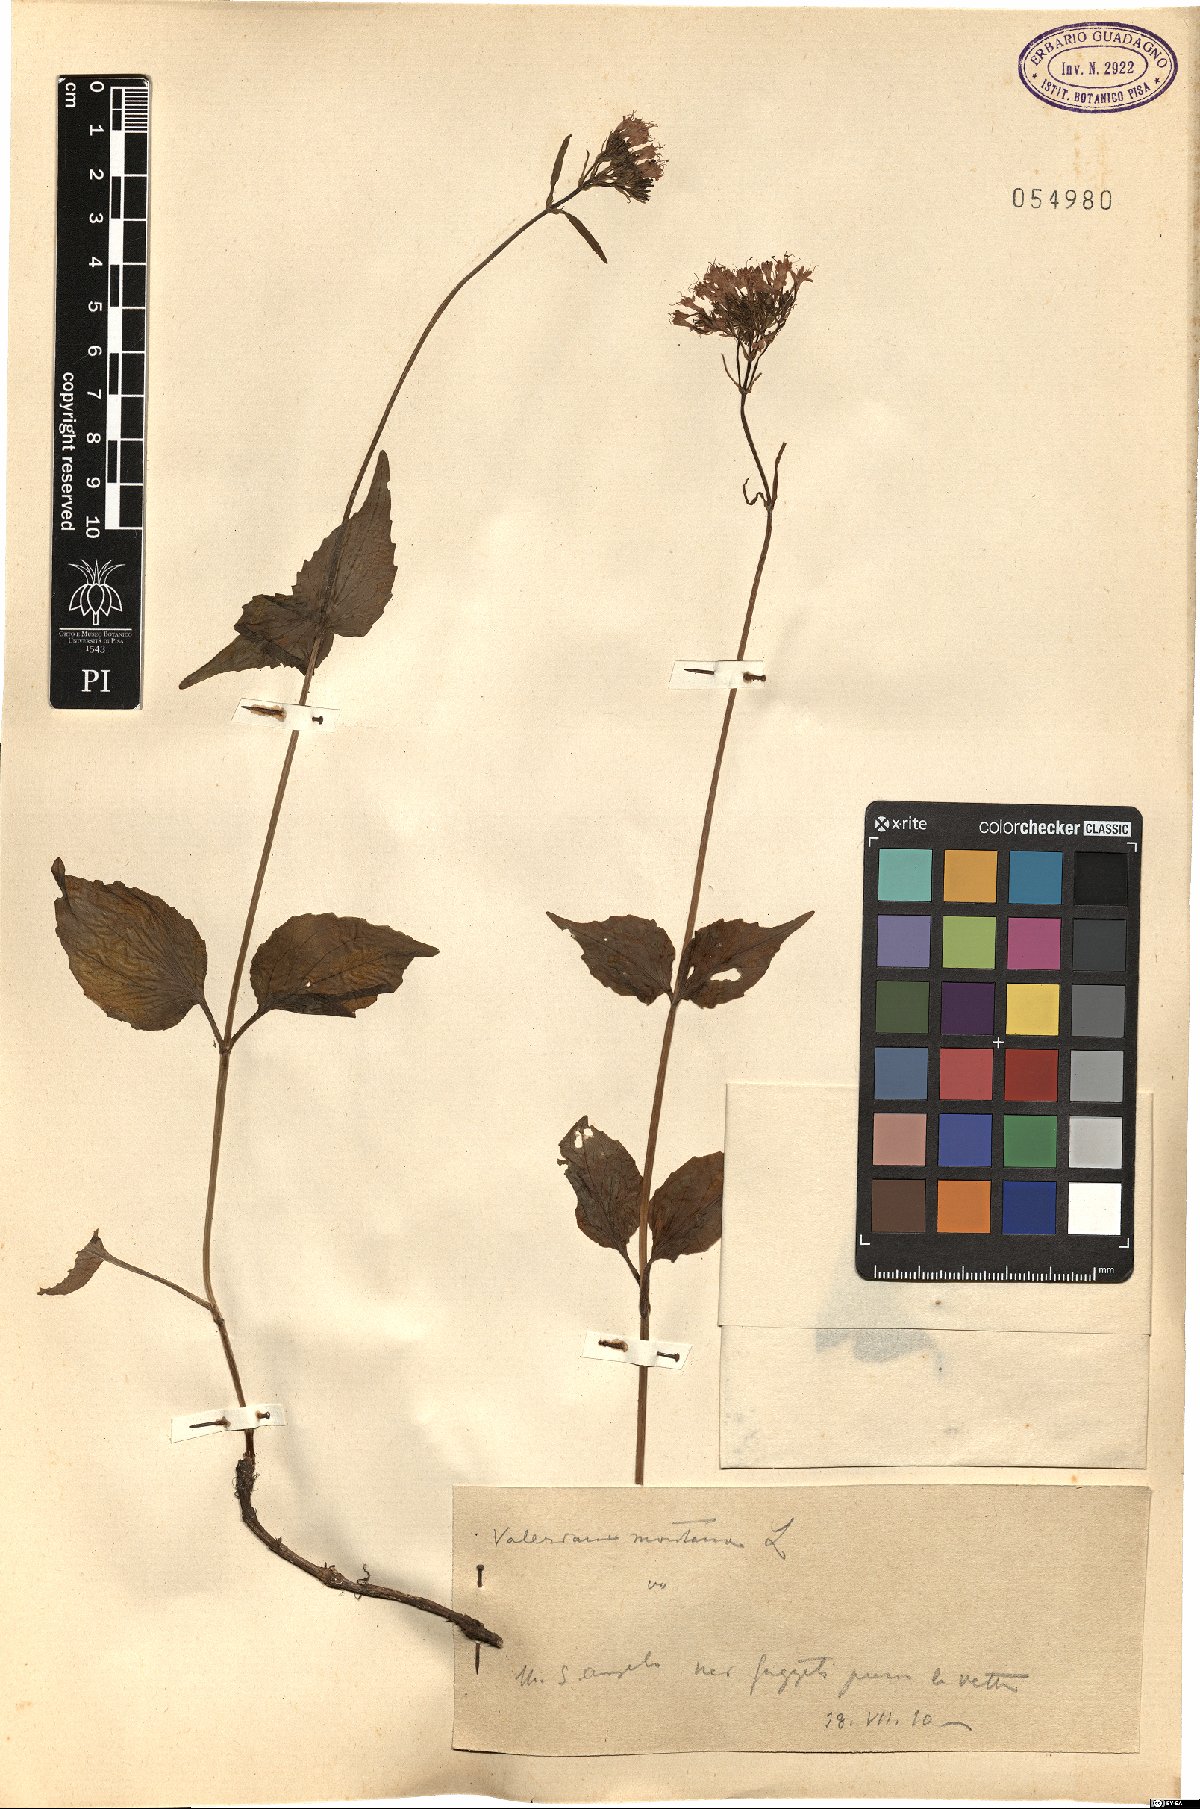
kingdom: Plantae
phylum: Tracheophyta
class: Magnoliopsida
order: Dipsacales
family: Caprifoliaceae
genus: Valeriana
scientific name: Valeriana montana
